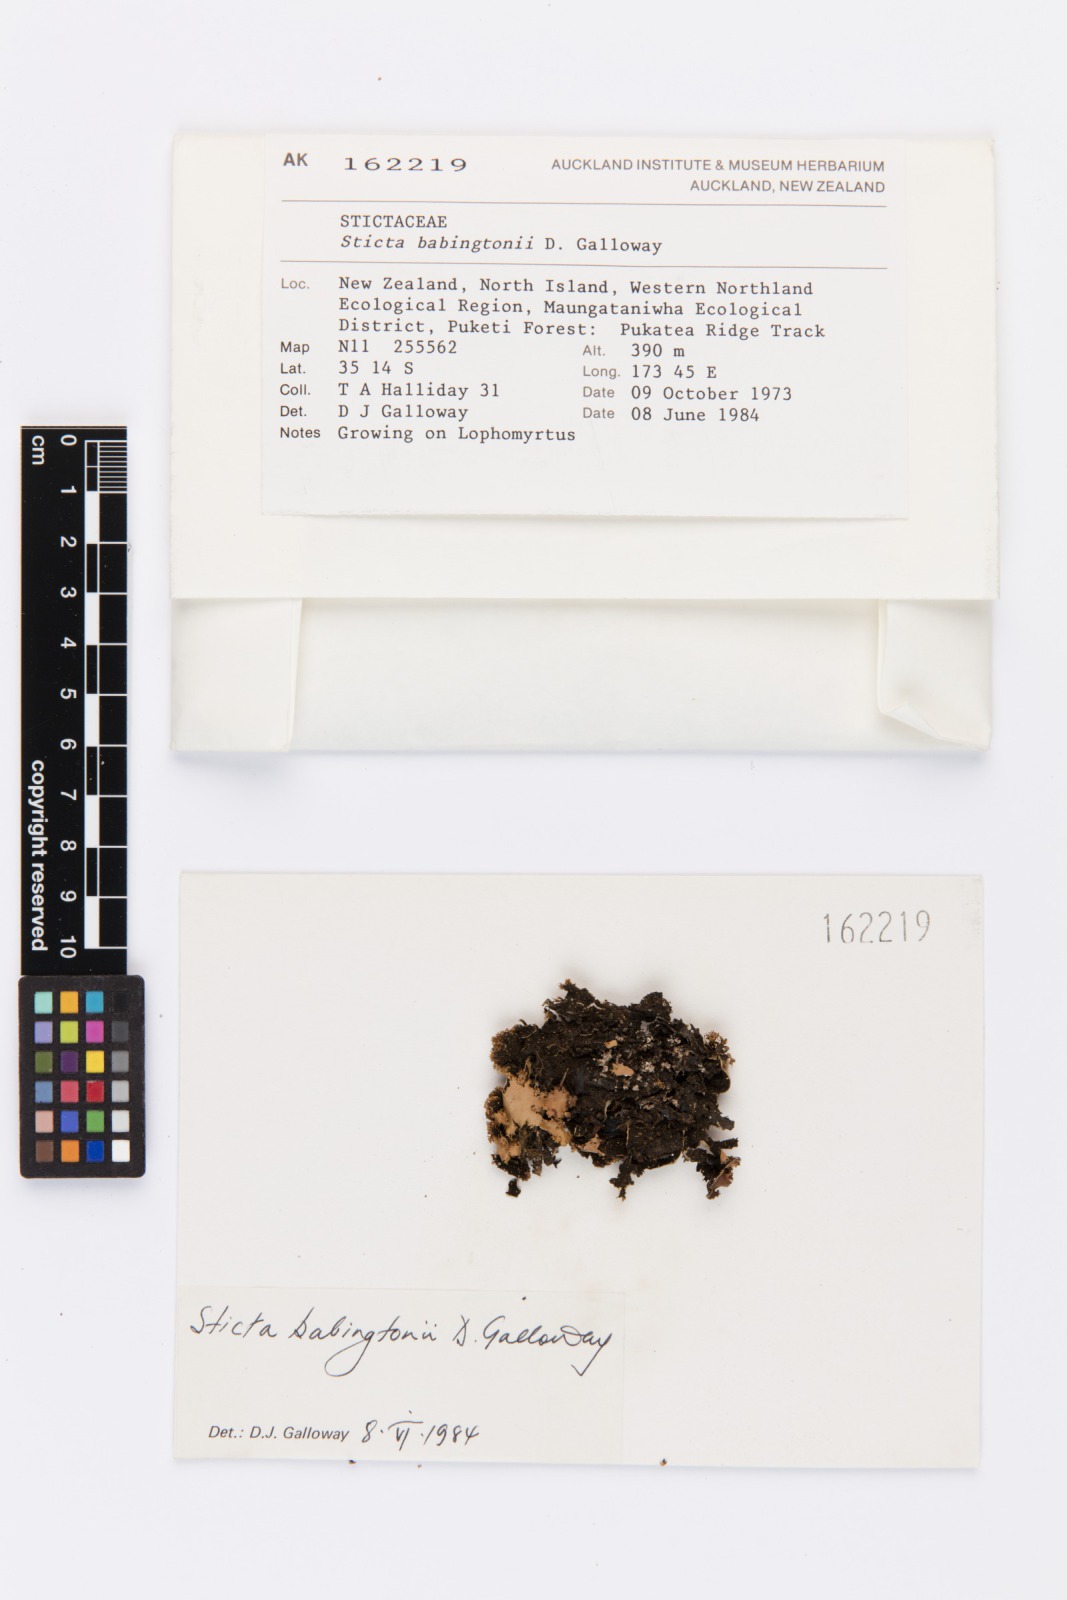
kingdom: Fungi
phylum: Ascomycota
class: Lecanoromycetes
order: Peltigerales
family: Lobariaceae
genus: Sticta
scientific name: Sticta babingtonii
